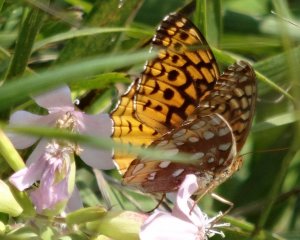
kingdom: Animalia
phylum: Arthropoda
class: Insecta
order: Lepidoptera
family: Nymphalidae
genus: Speyeria
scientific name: Speyeria cybele
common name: Great Spangled Fritillary
